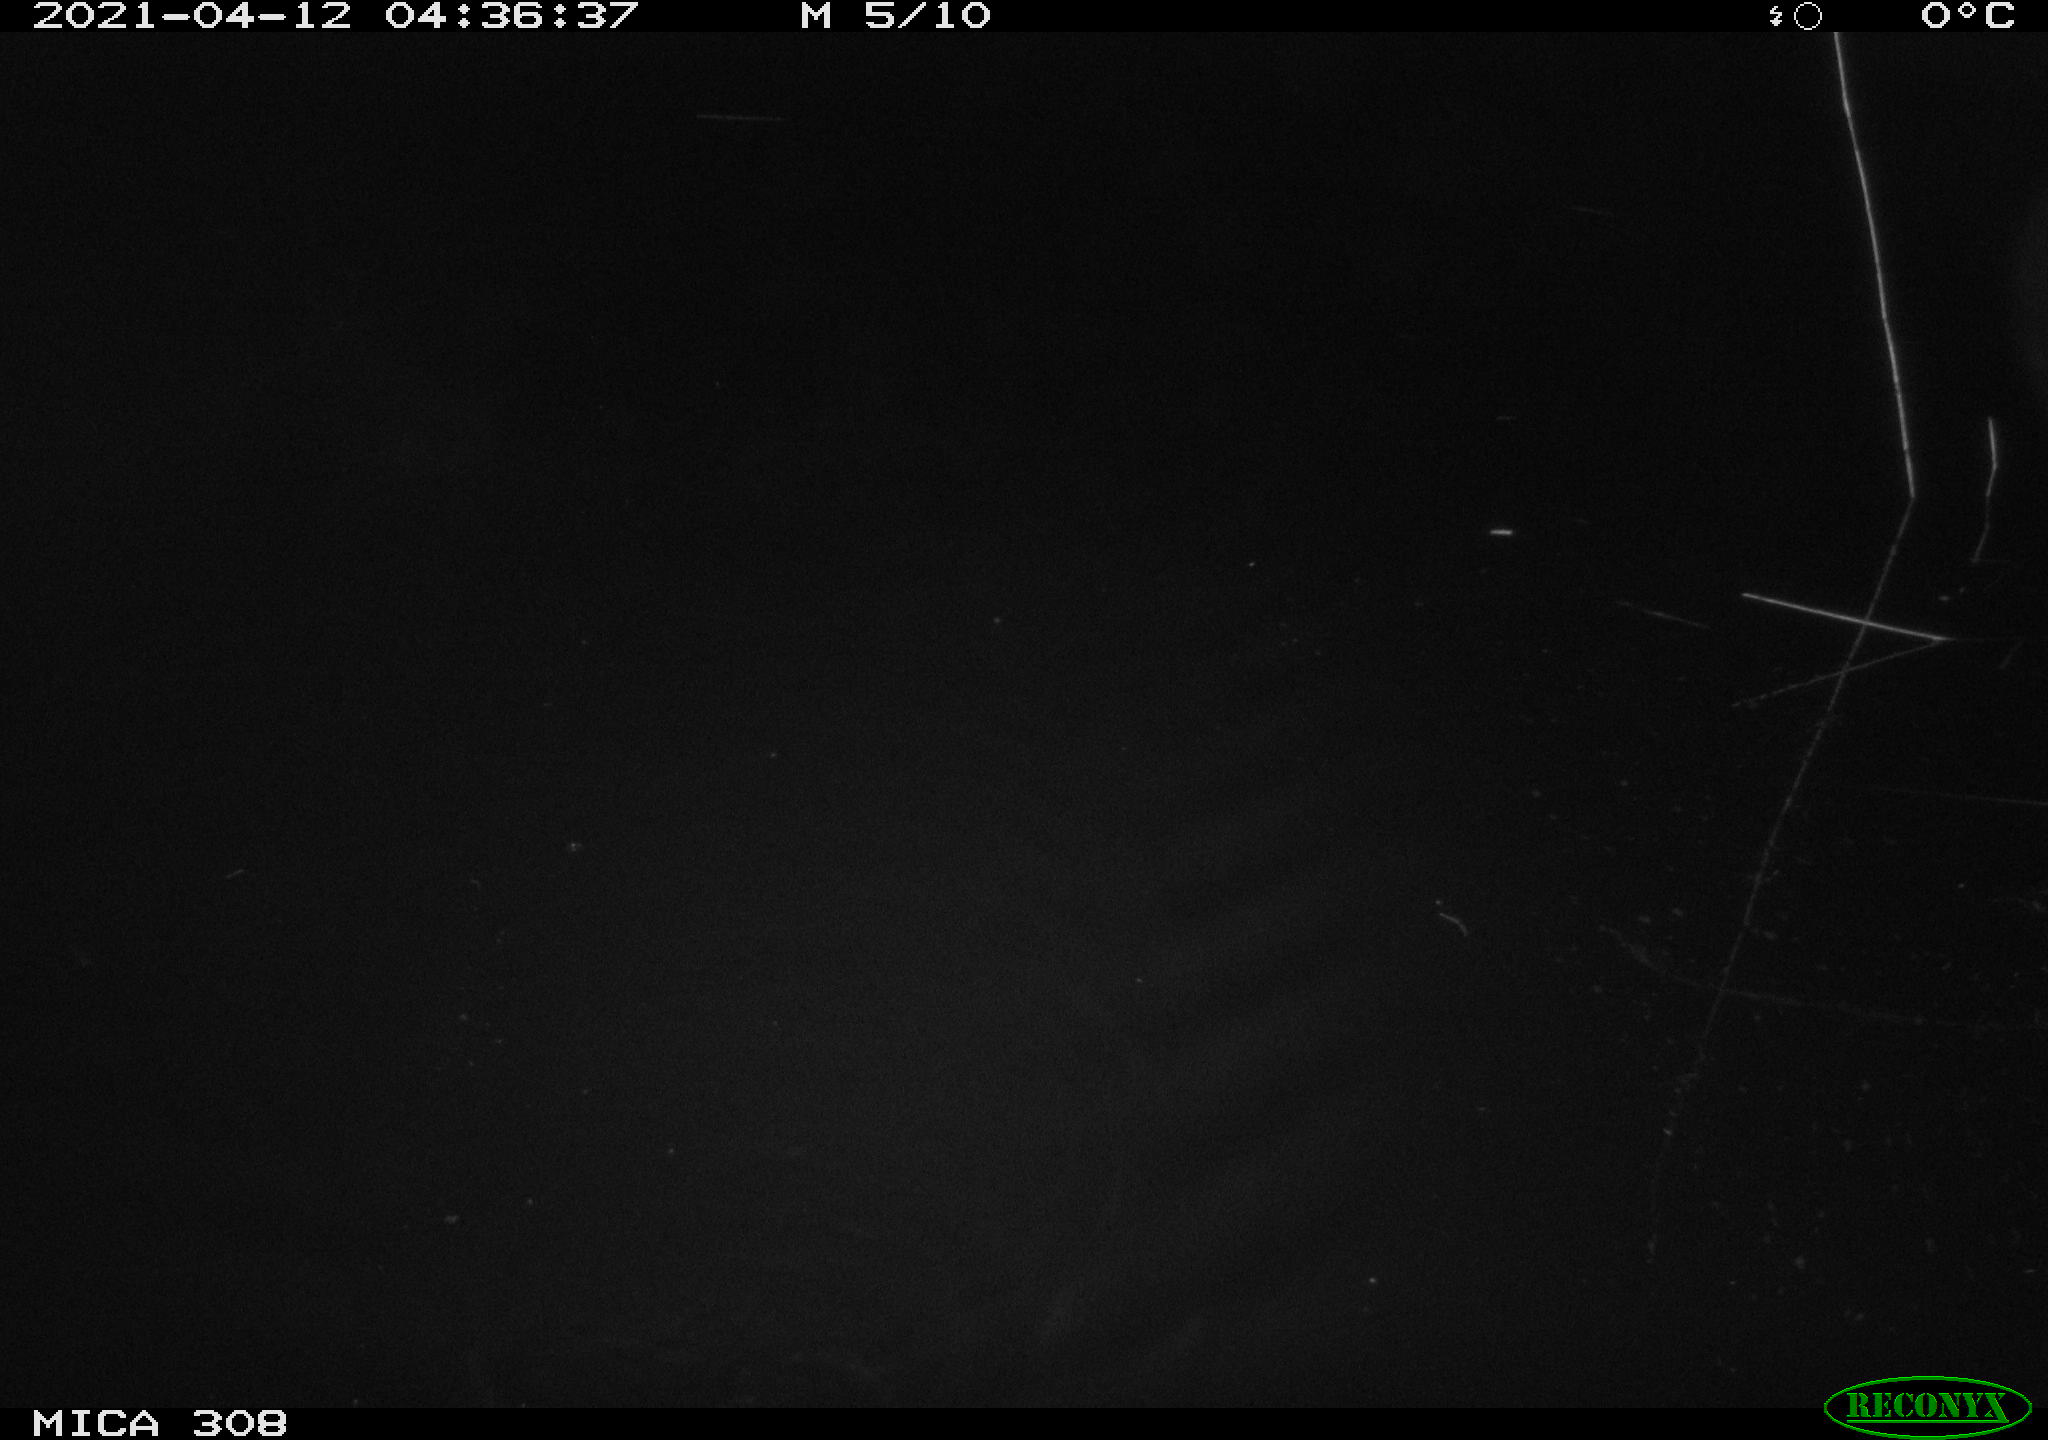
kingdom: Animalia
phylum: Chordata
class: Mammalia
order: Rodentia
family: Cricetidae
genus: Ondatra
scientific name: Ondatra zibethicus
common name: Muskrat
